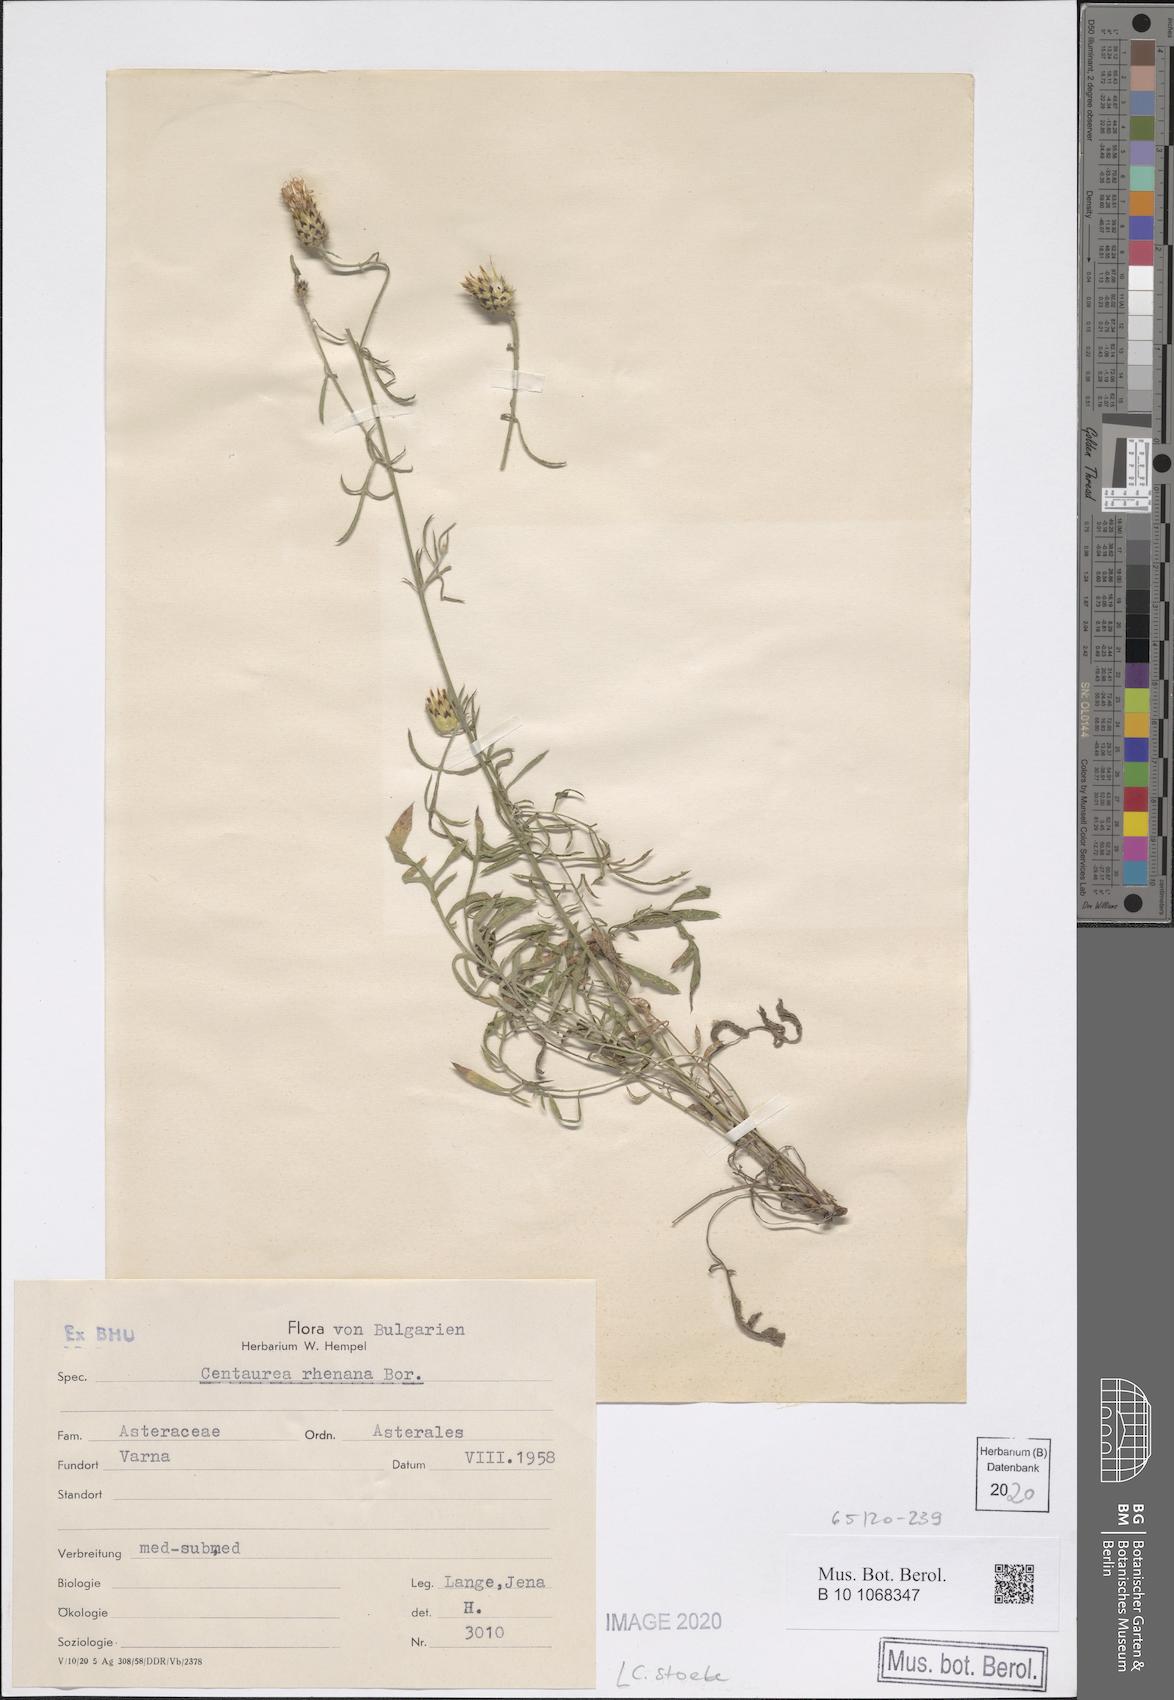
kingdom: Plantae
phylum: Tracheophyta
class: Magnoliopsida
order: Asterales
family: Asteraceae
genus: Centaurea
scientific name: Centaurea stoebe
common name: Spotted knapweed
